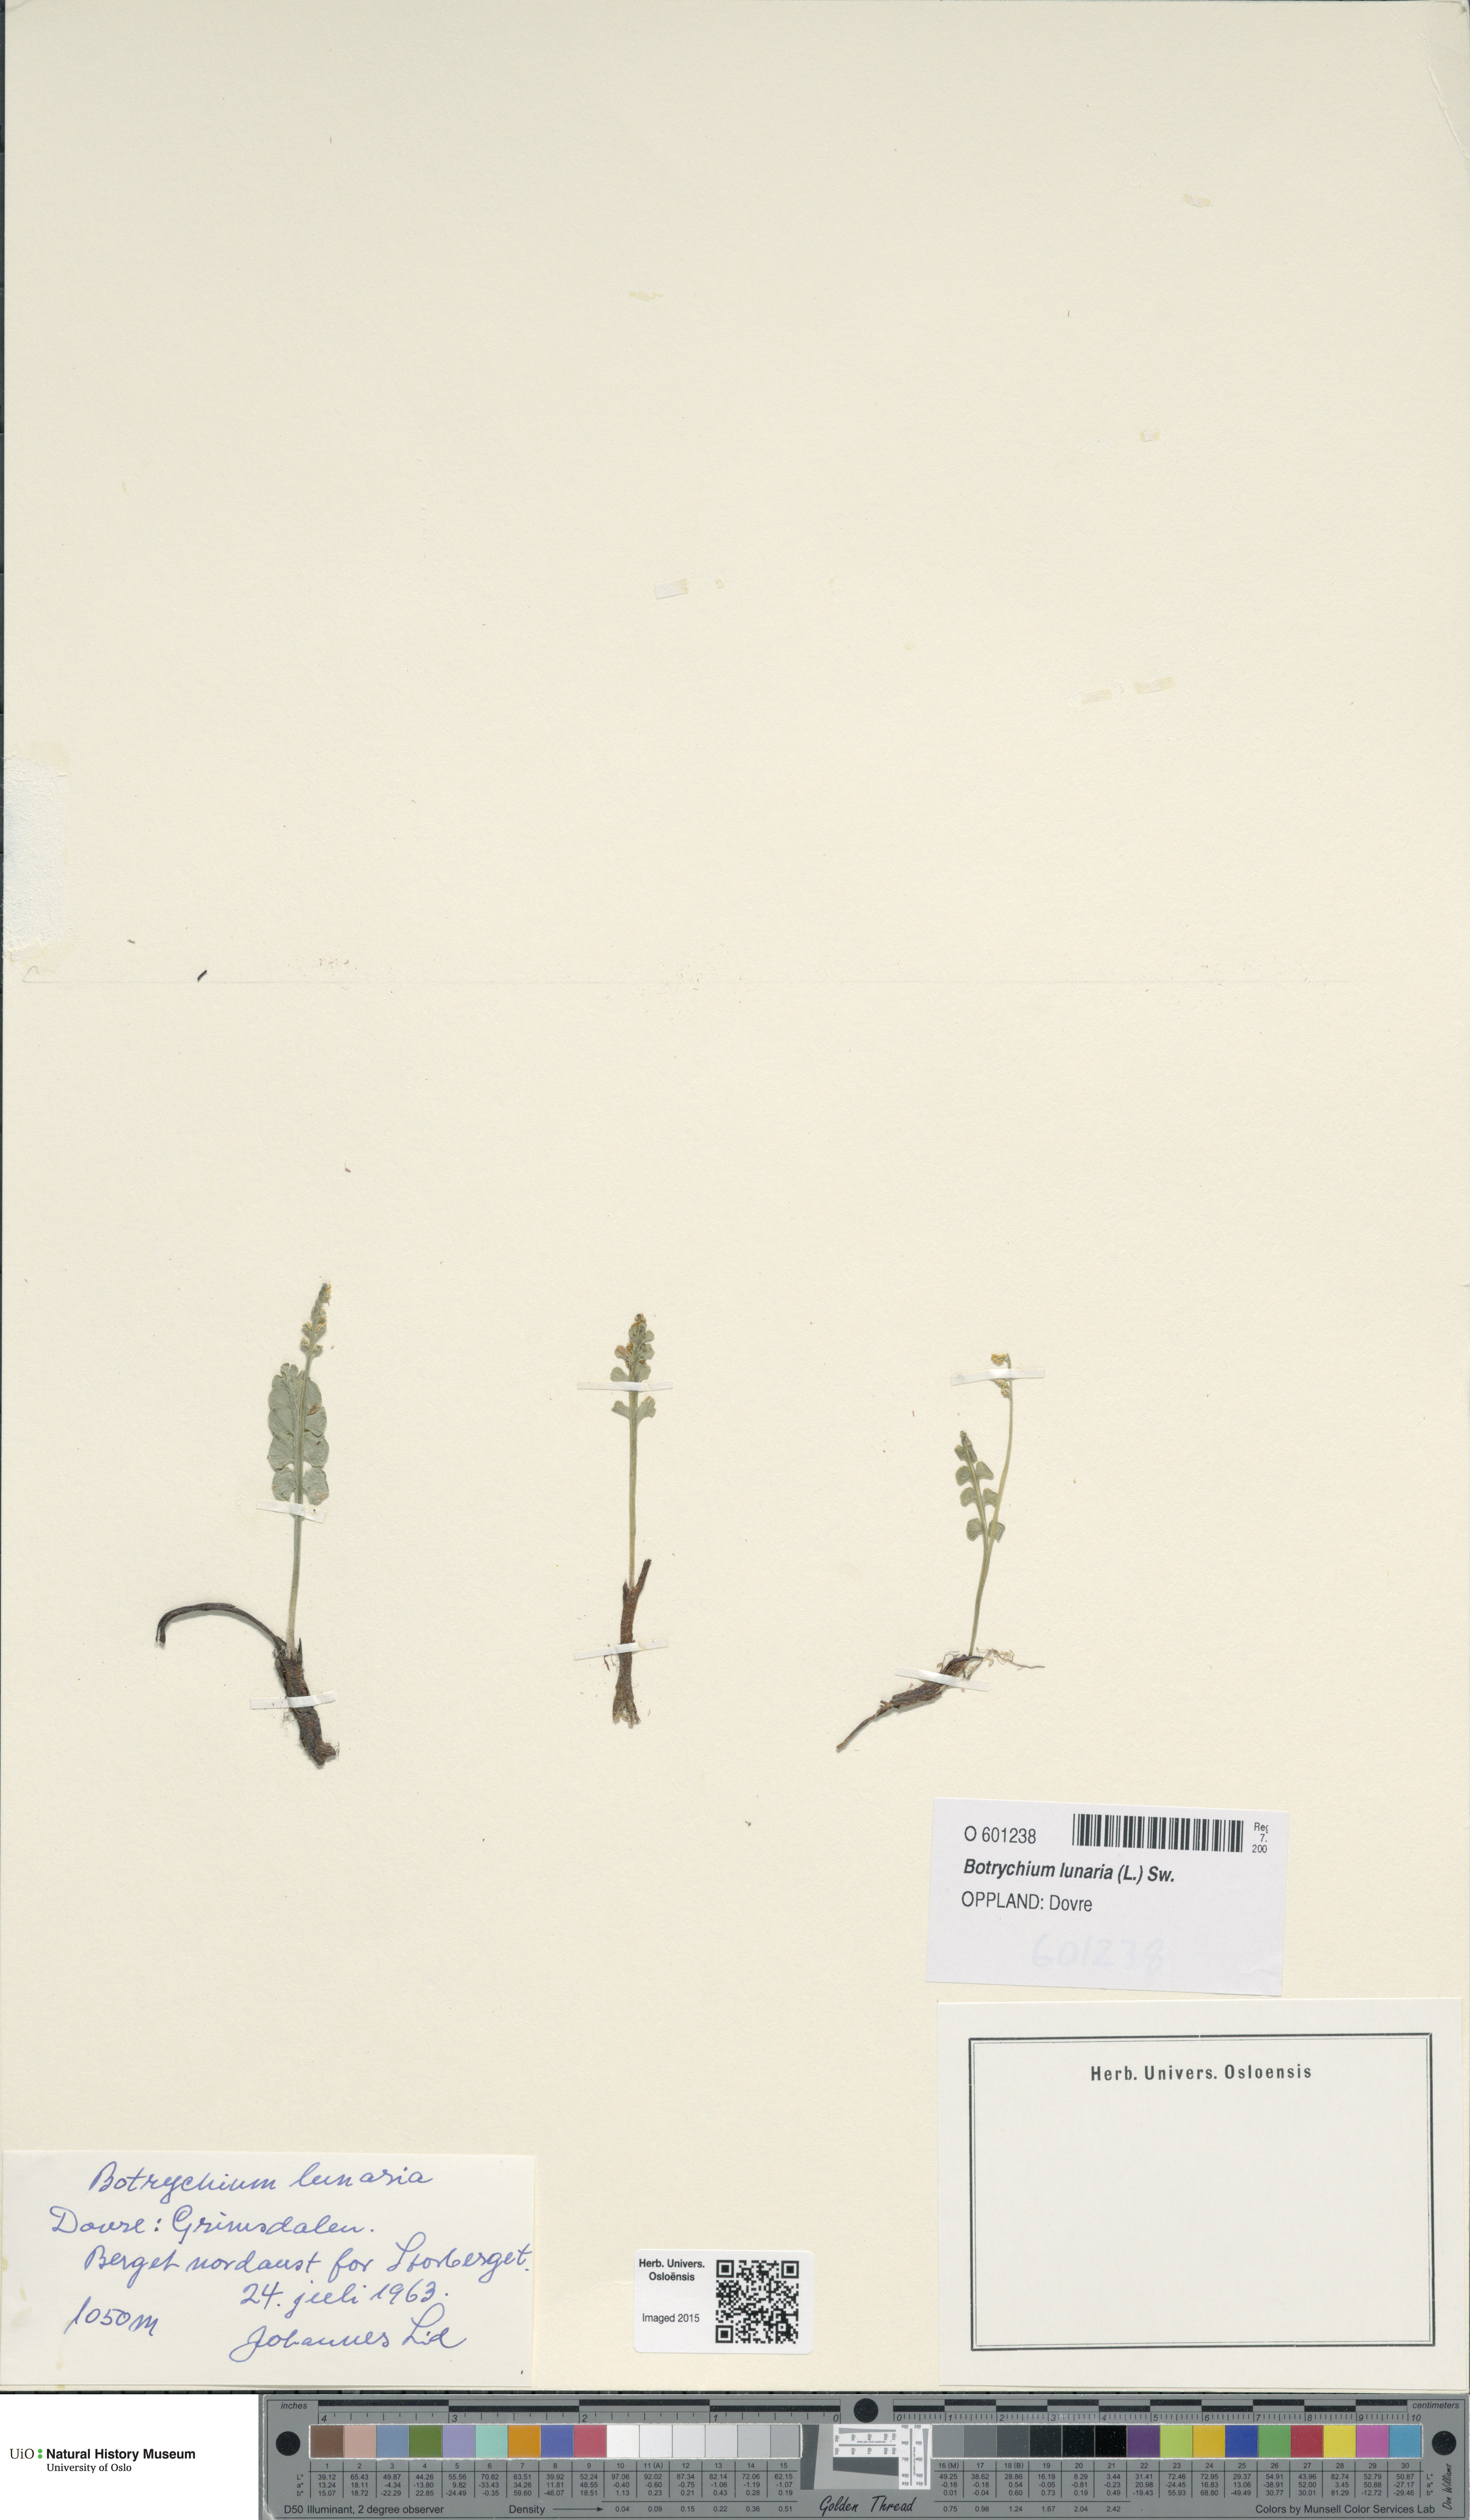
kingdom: Plantae
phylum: Tracheophyta
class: Polypodiopsida
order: Ophioglossales
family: Ophioglossaceae
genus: Botrychium
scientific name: Botrychium lunaria
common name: Moonwort
